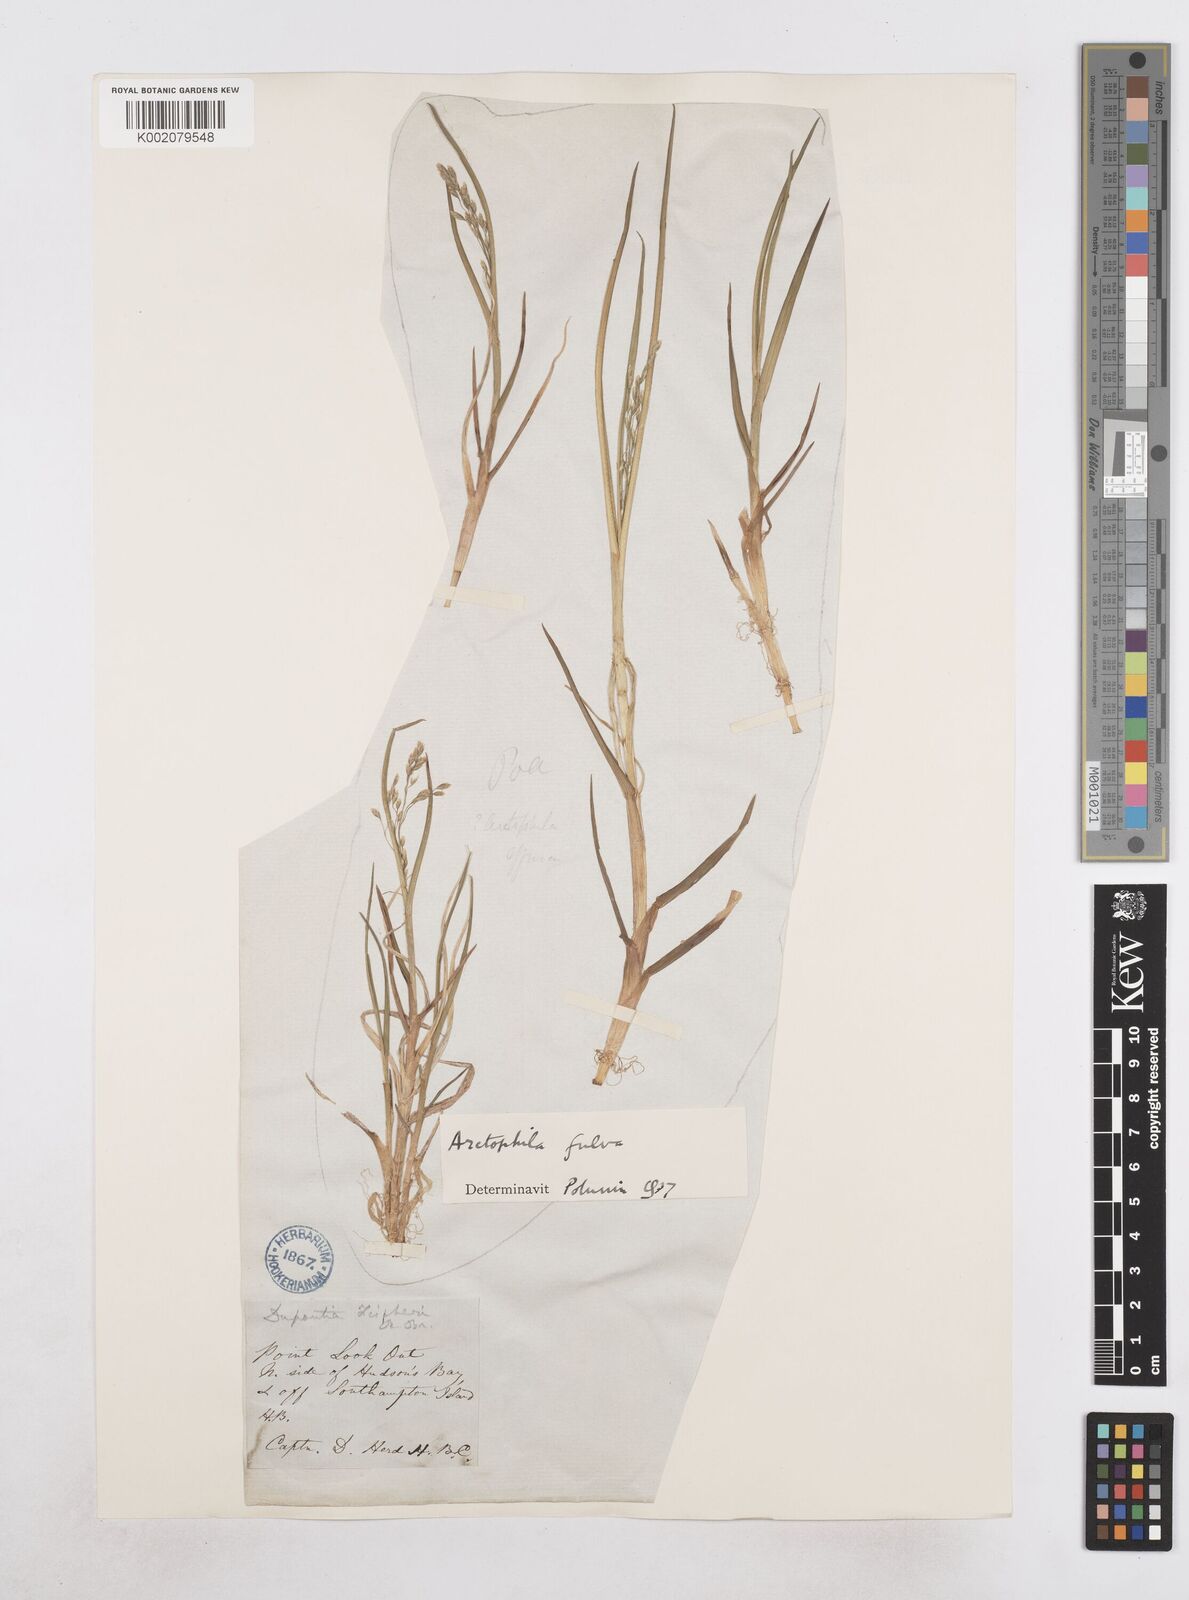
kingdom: Plantae
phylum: Tracheophyta
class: Liliopsida
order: Poales
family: Poaceae
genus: Dupontia
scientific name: Dupontia fulva
